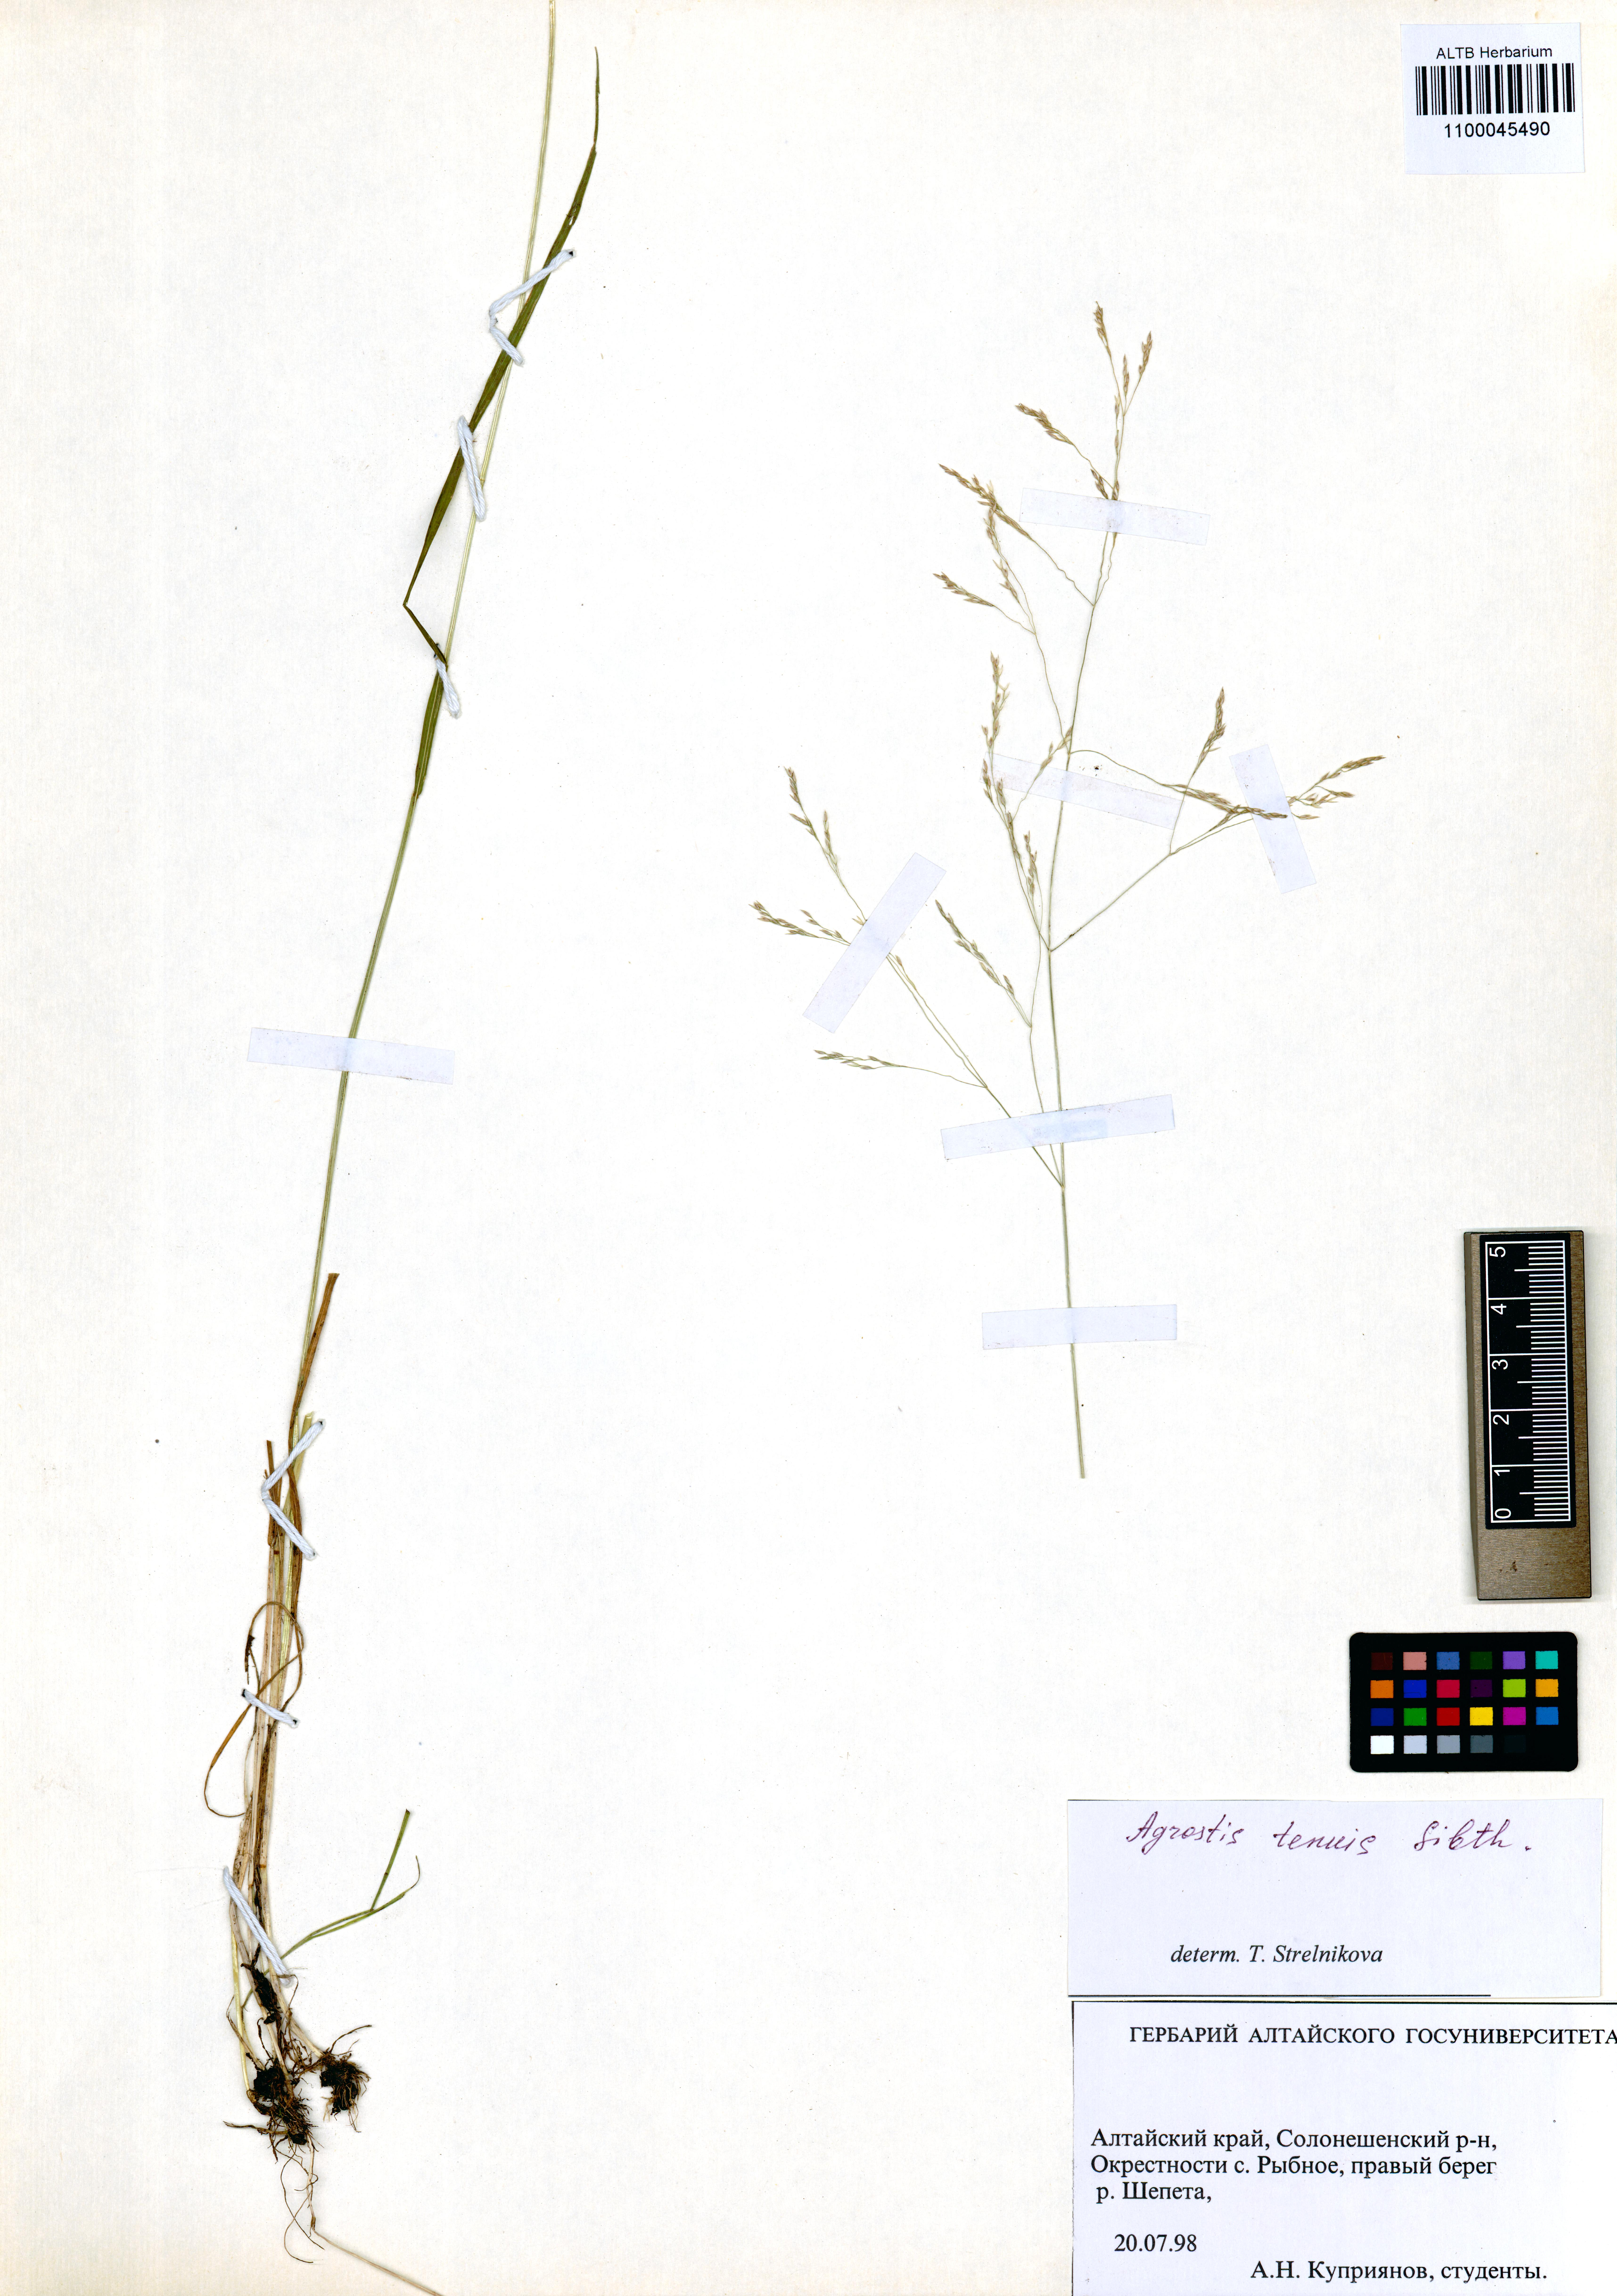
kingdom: Plantae
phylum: Tracheophyta
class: Liliopsida
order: Poales
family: Poaceae
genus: Agrostis
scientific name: Agrostis capillaris
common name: Colonial bentgrass
